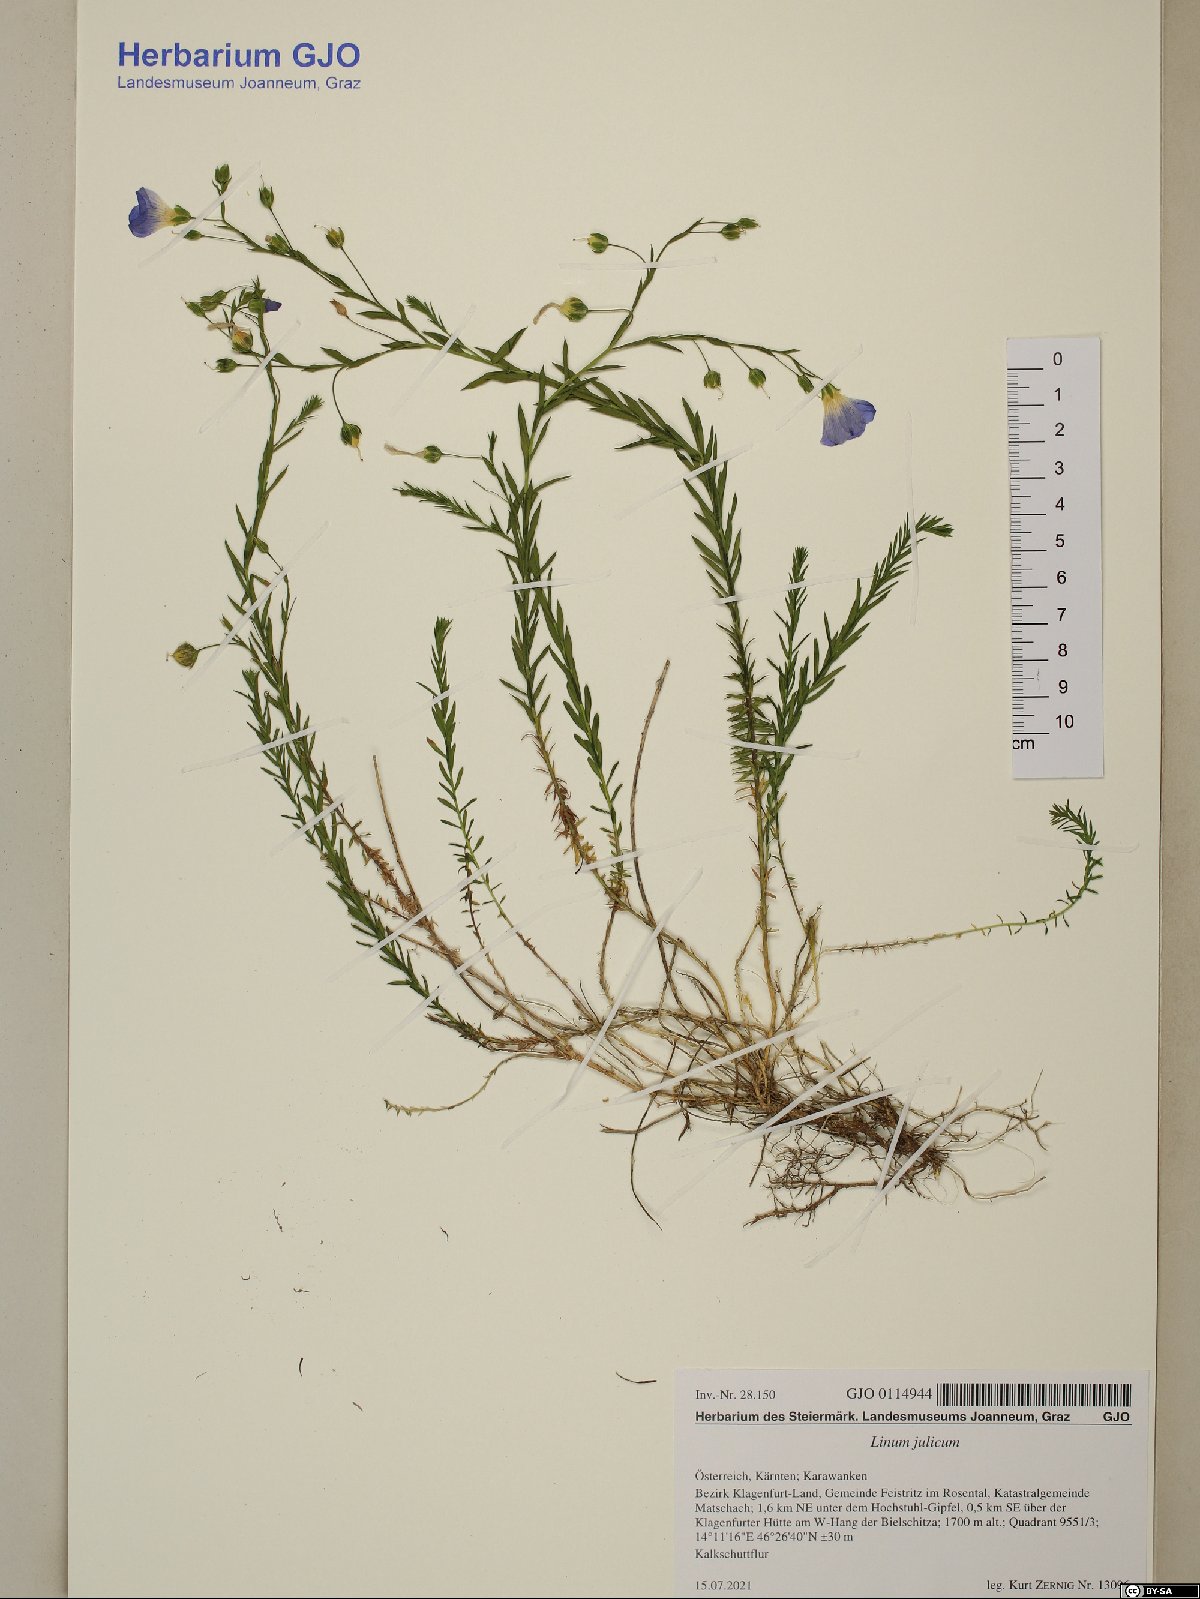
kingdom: Plantae
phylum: Tracheophyta
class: Magnoliopsida
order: Malpighiales
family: Linaceae
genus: Linum
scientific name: Linum alpinum
